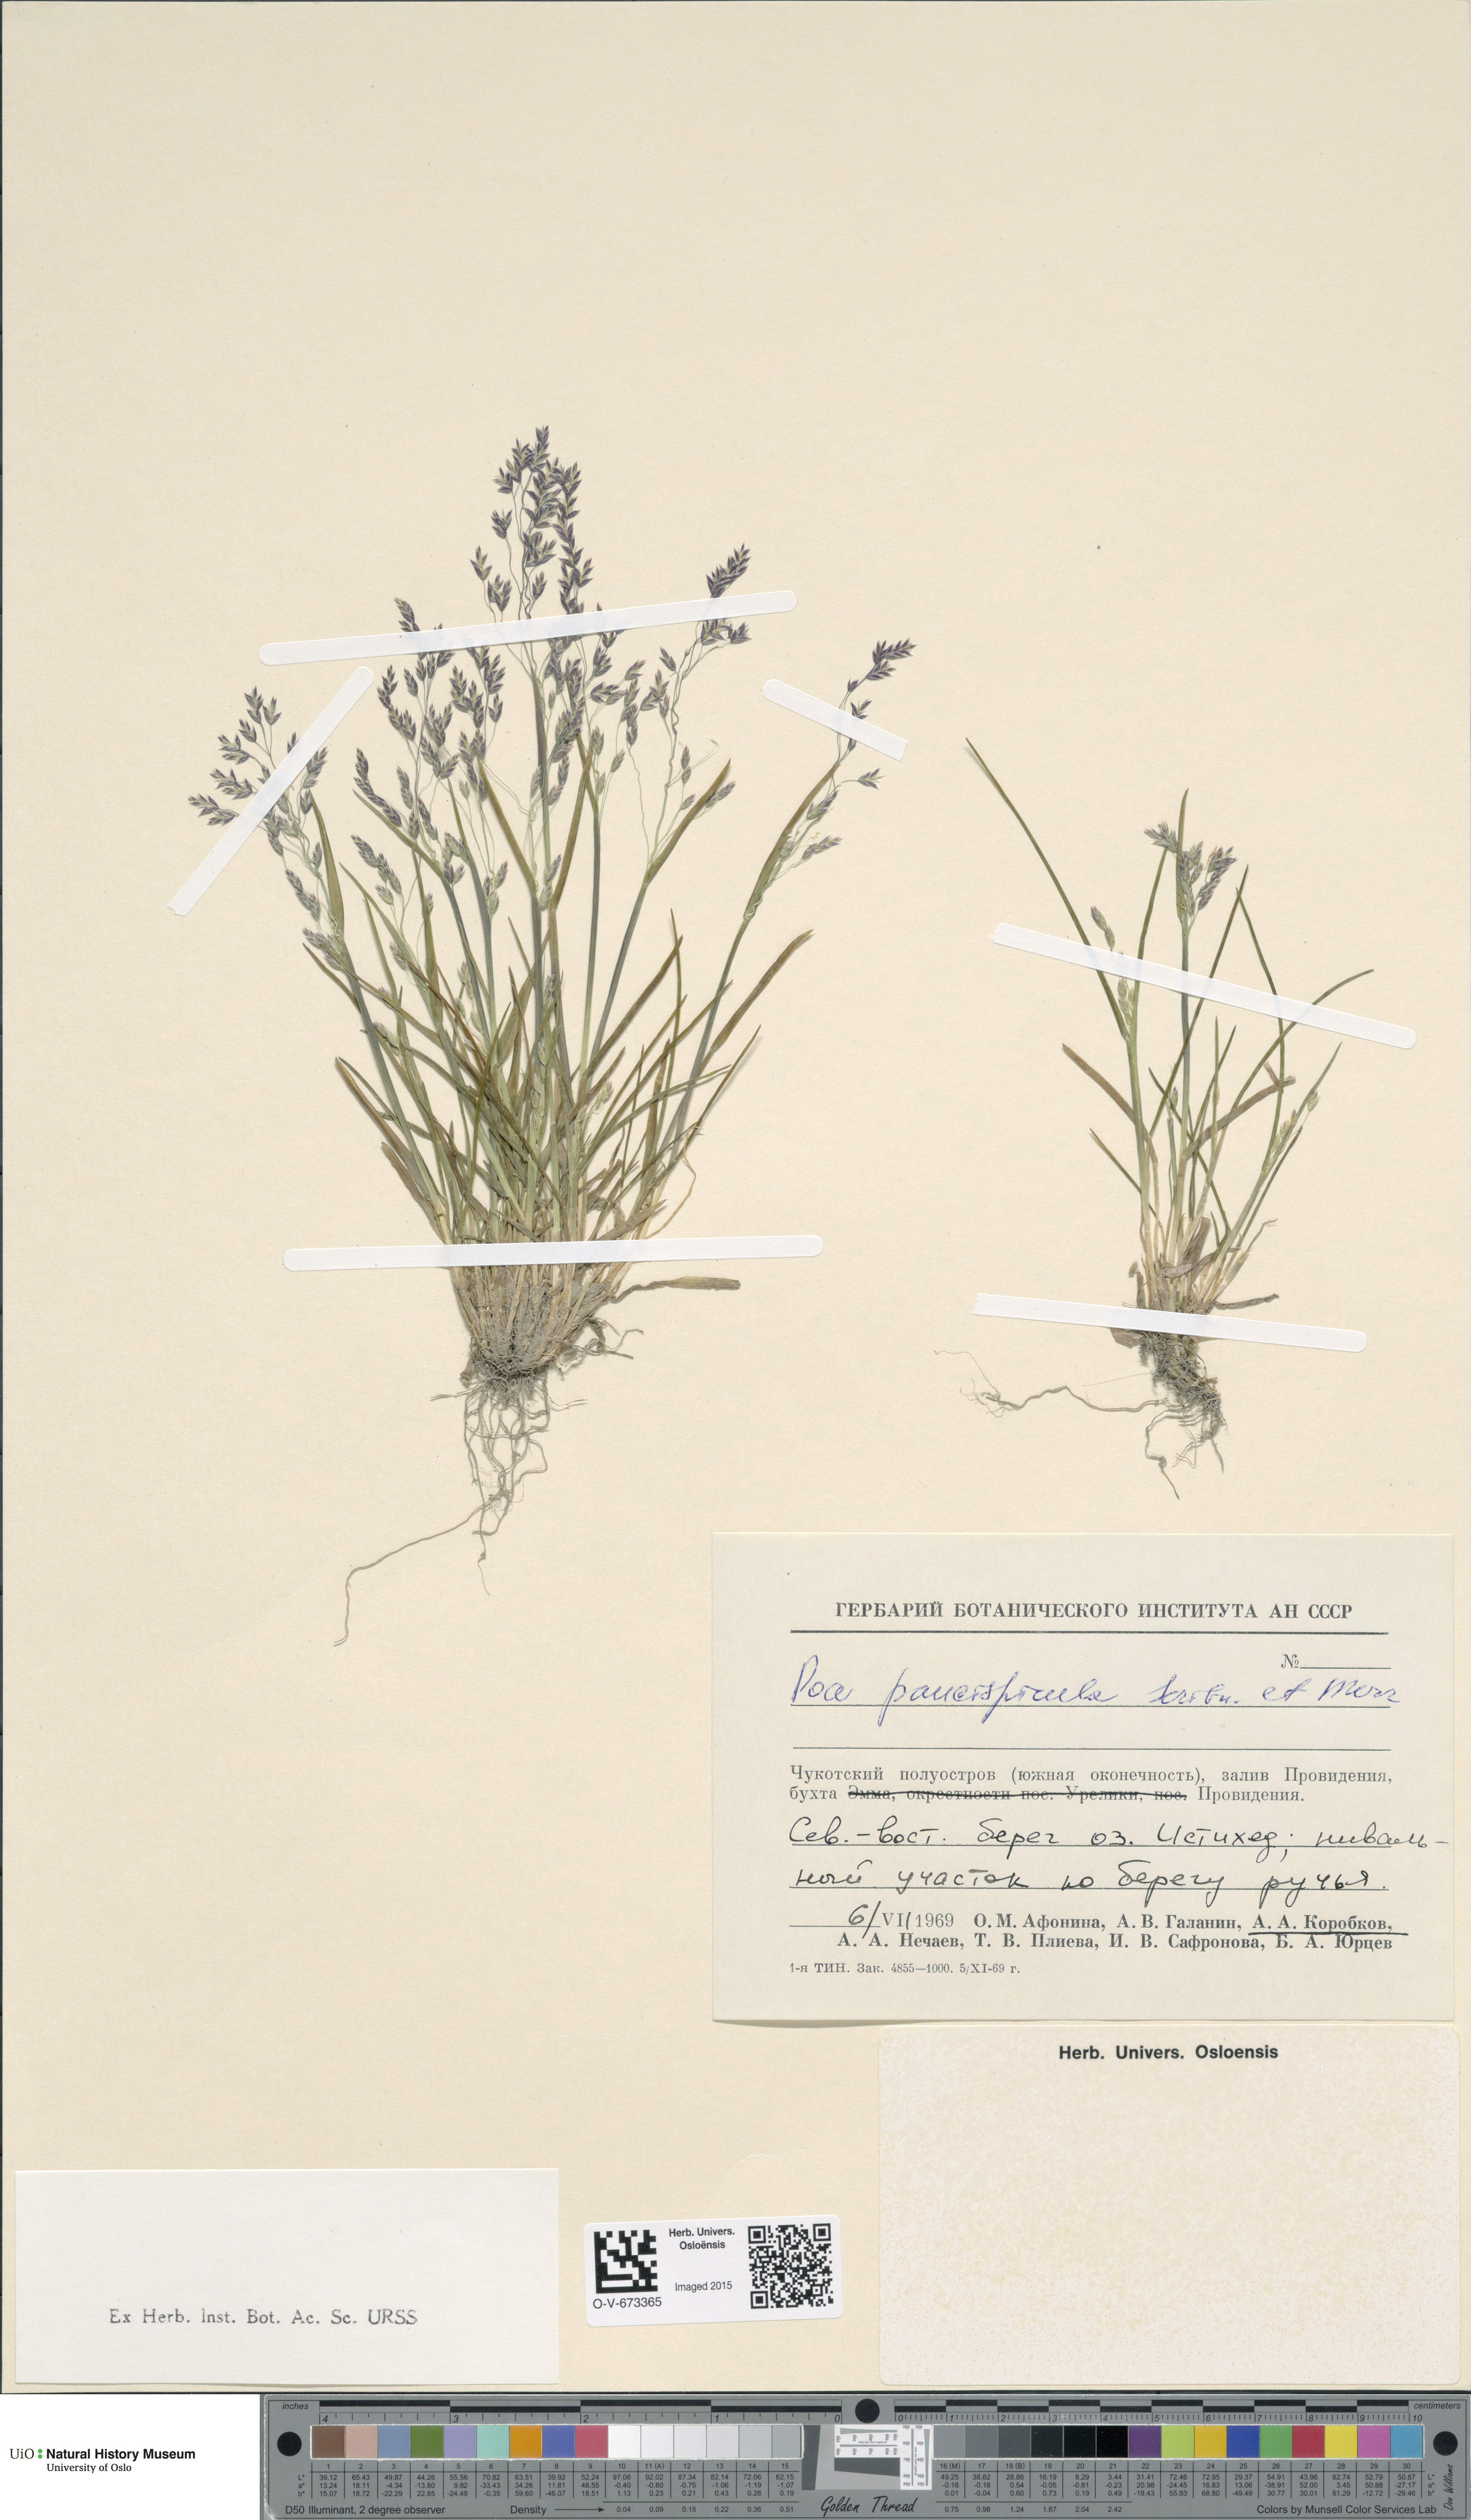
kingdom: Plantae
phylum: Tracheophyta
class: Liliopsida
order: Poales
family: Poaceae
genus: Poa
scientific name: Poa paucispicula
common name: Alaska bluegrass
